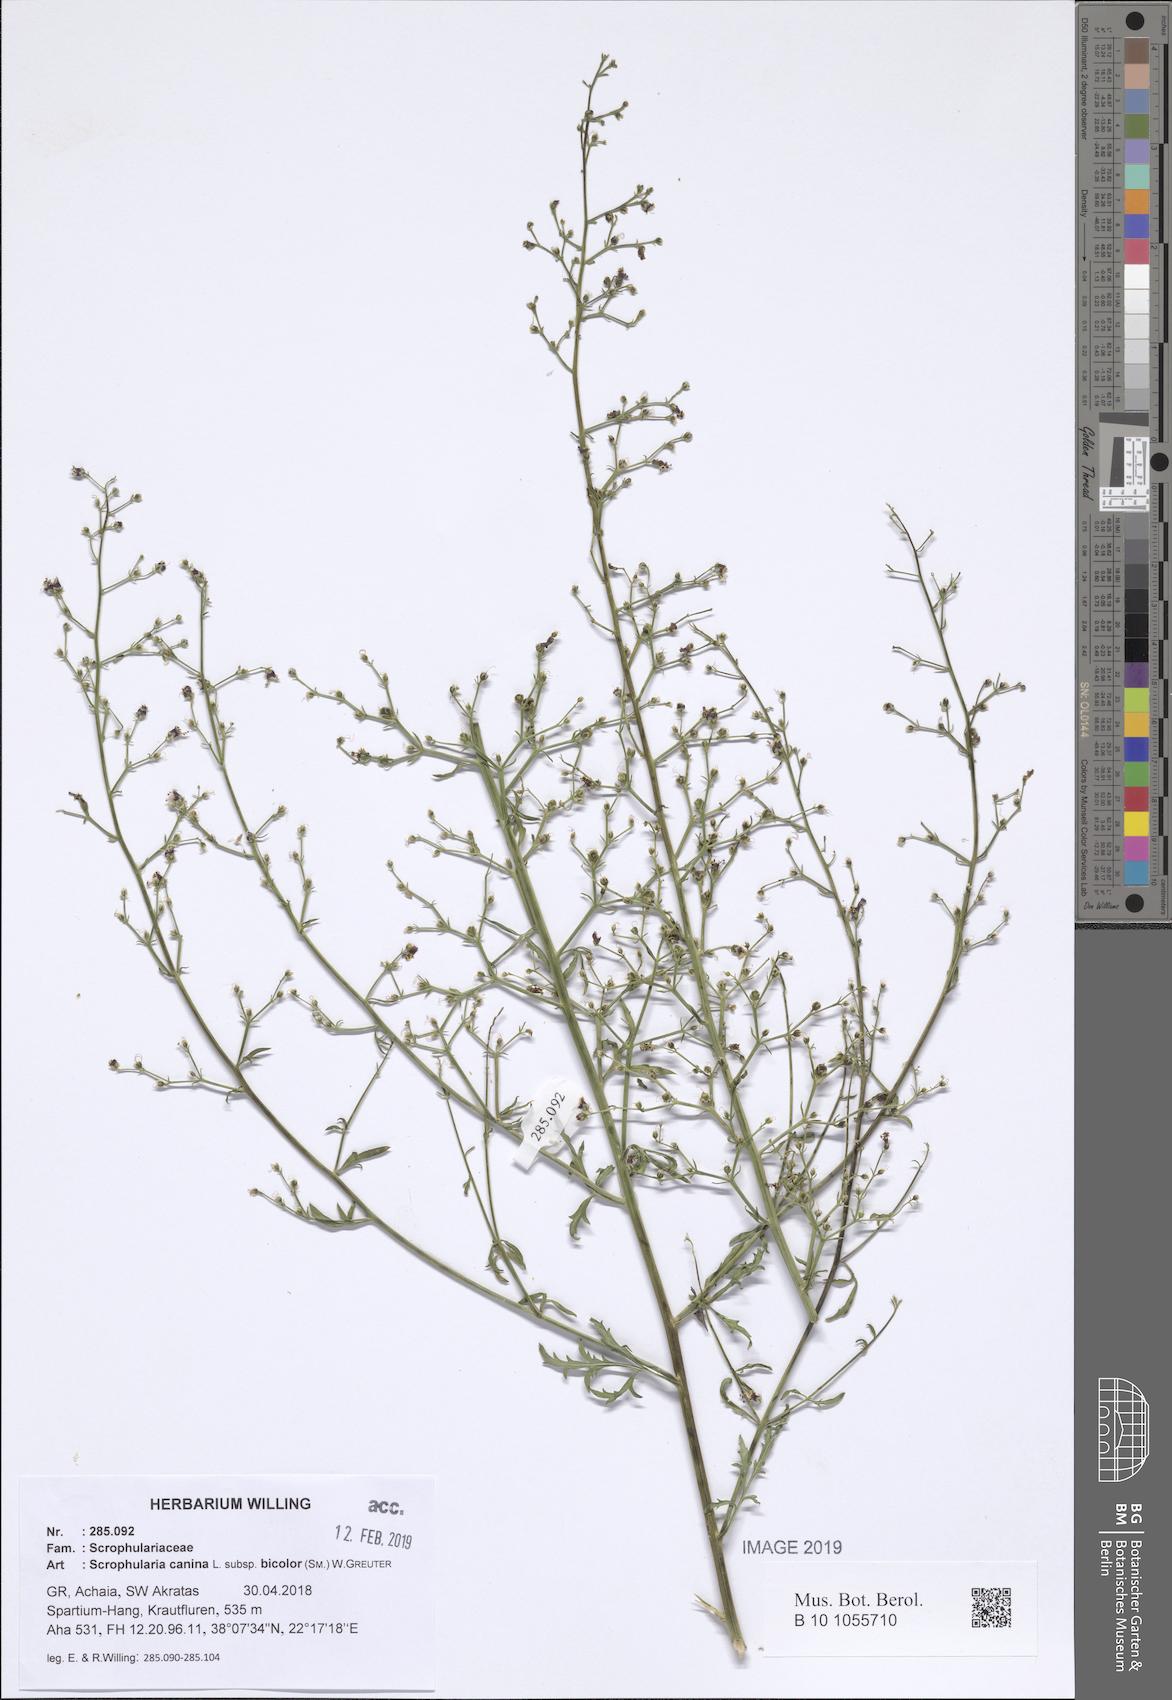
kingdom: Plantae
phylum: Tracheophyta
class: Magnoliopsida
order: Lamiales
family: Scrophulariaceae
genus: Scrophularia
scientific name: Scrophularia canina
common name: French figwort
